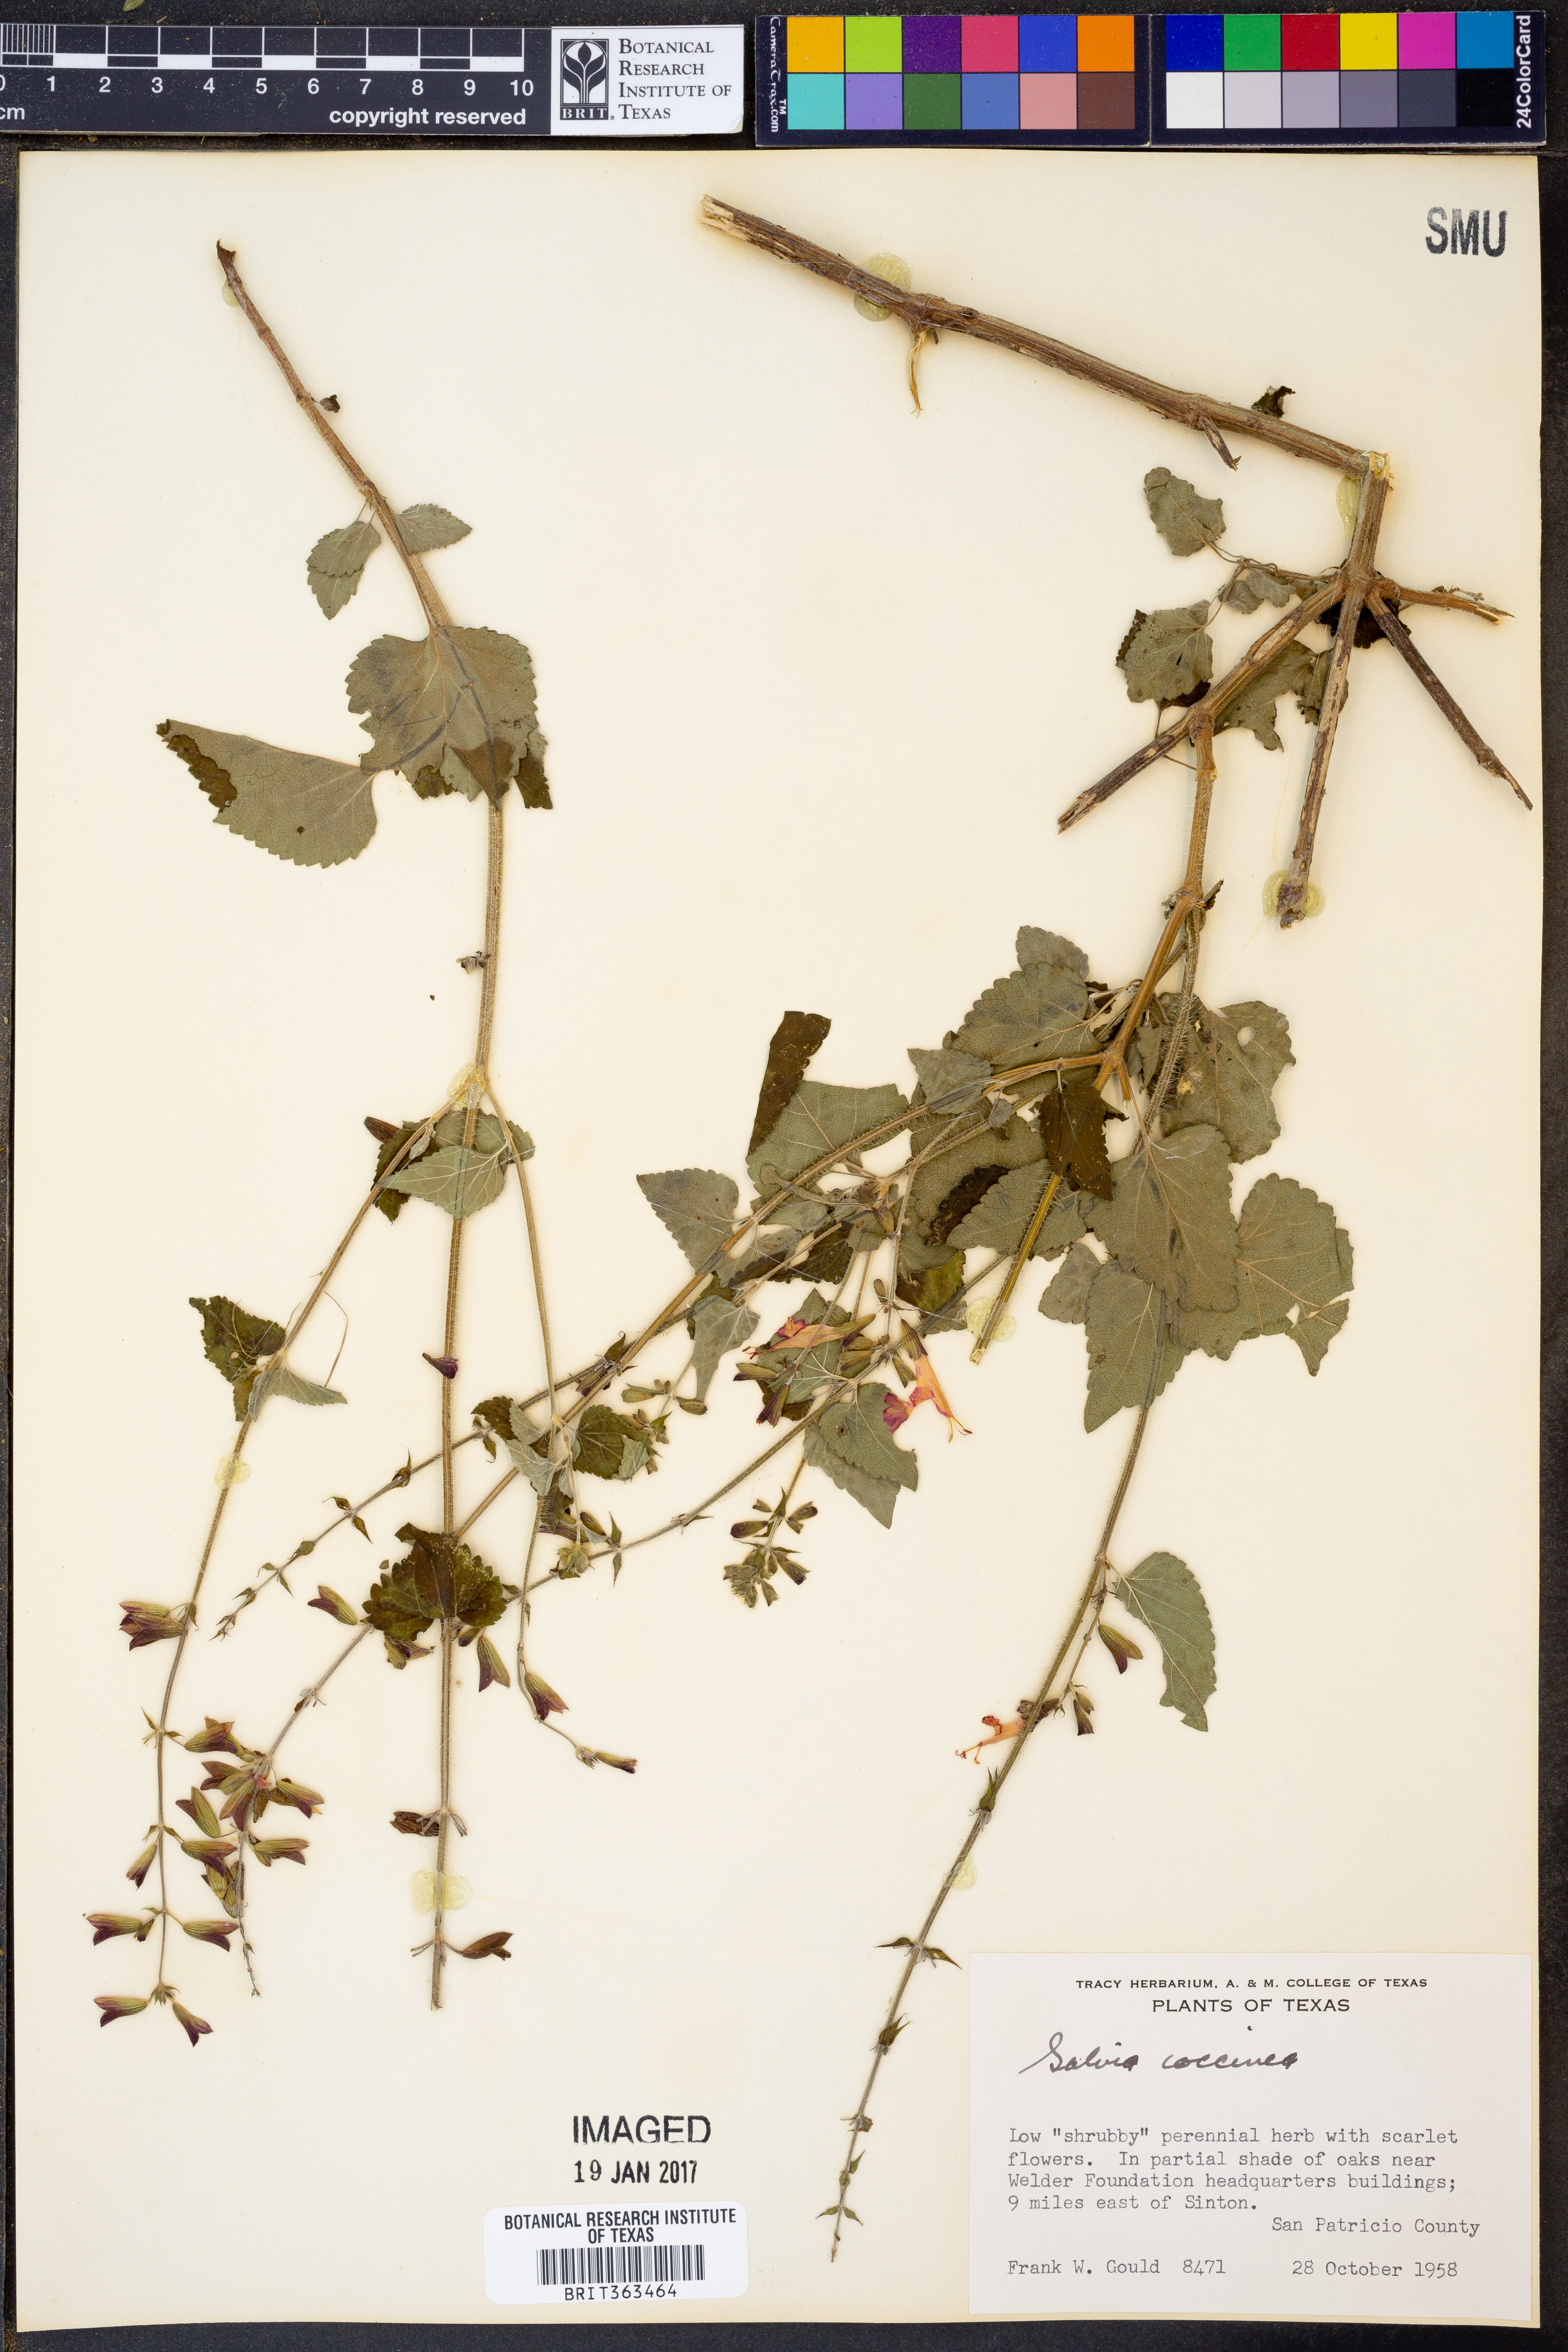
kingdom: Plantae
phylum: Tracheophyta
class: Magnoliopsida
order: Lamiales
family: Lamiaceae
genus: Salvia
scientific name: Salvia coccinea
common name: Blood sage
